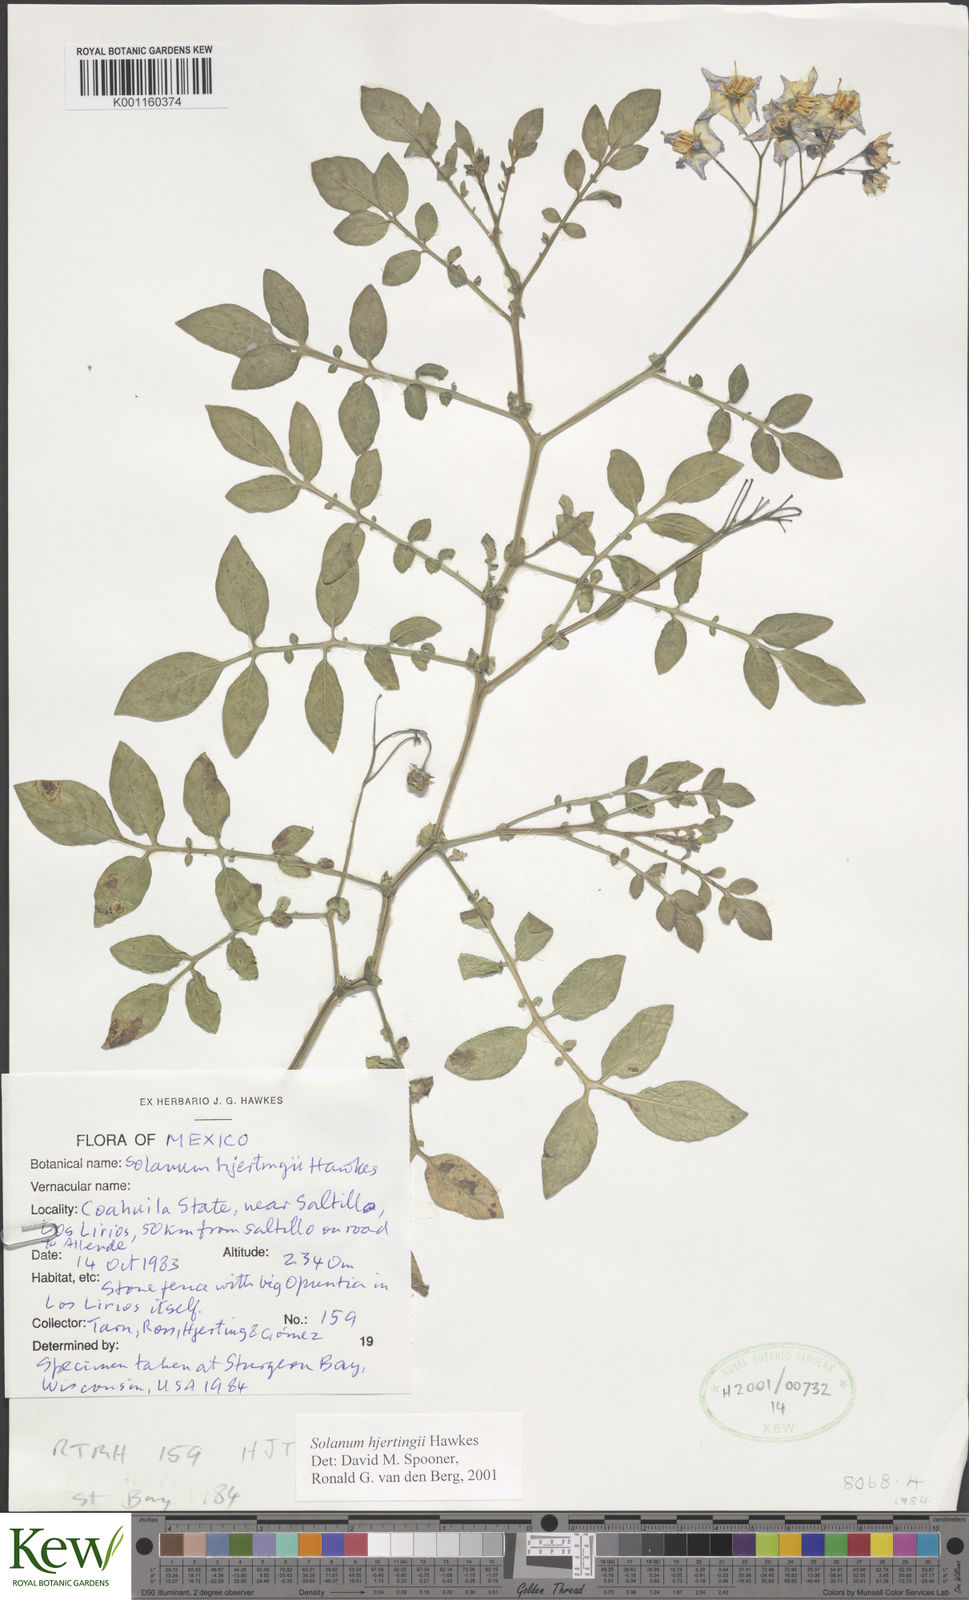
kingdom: Plantae
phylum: Tracheophyta
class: Magnoliopsida
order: Solanales
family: Solanaceae
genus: Solanum
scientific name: Solanum hjertingii
